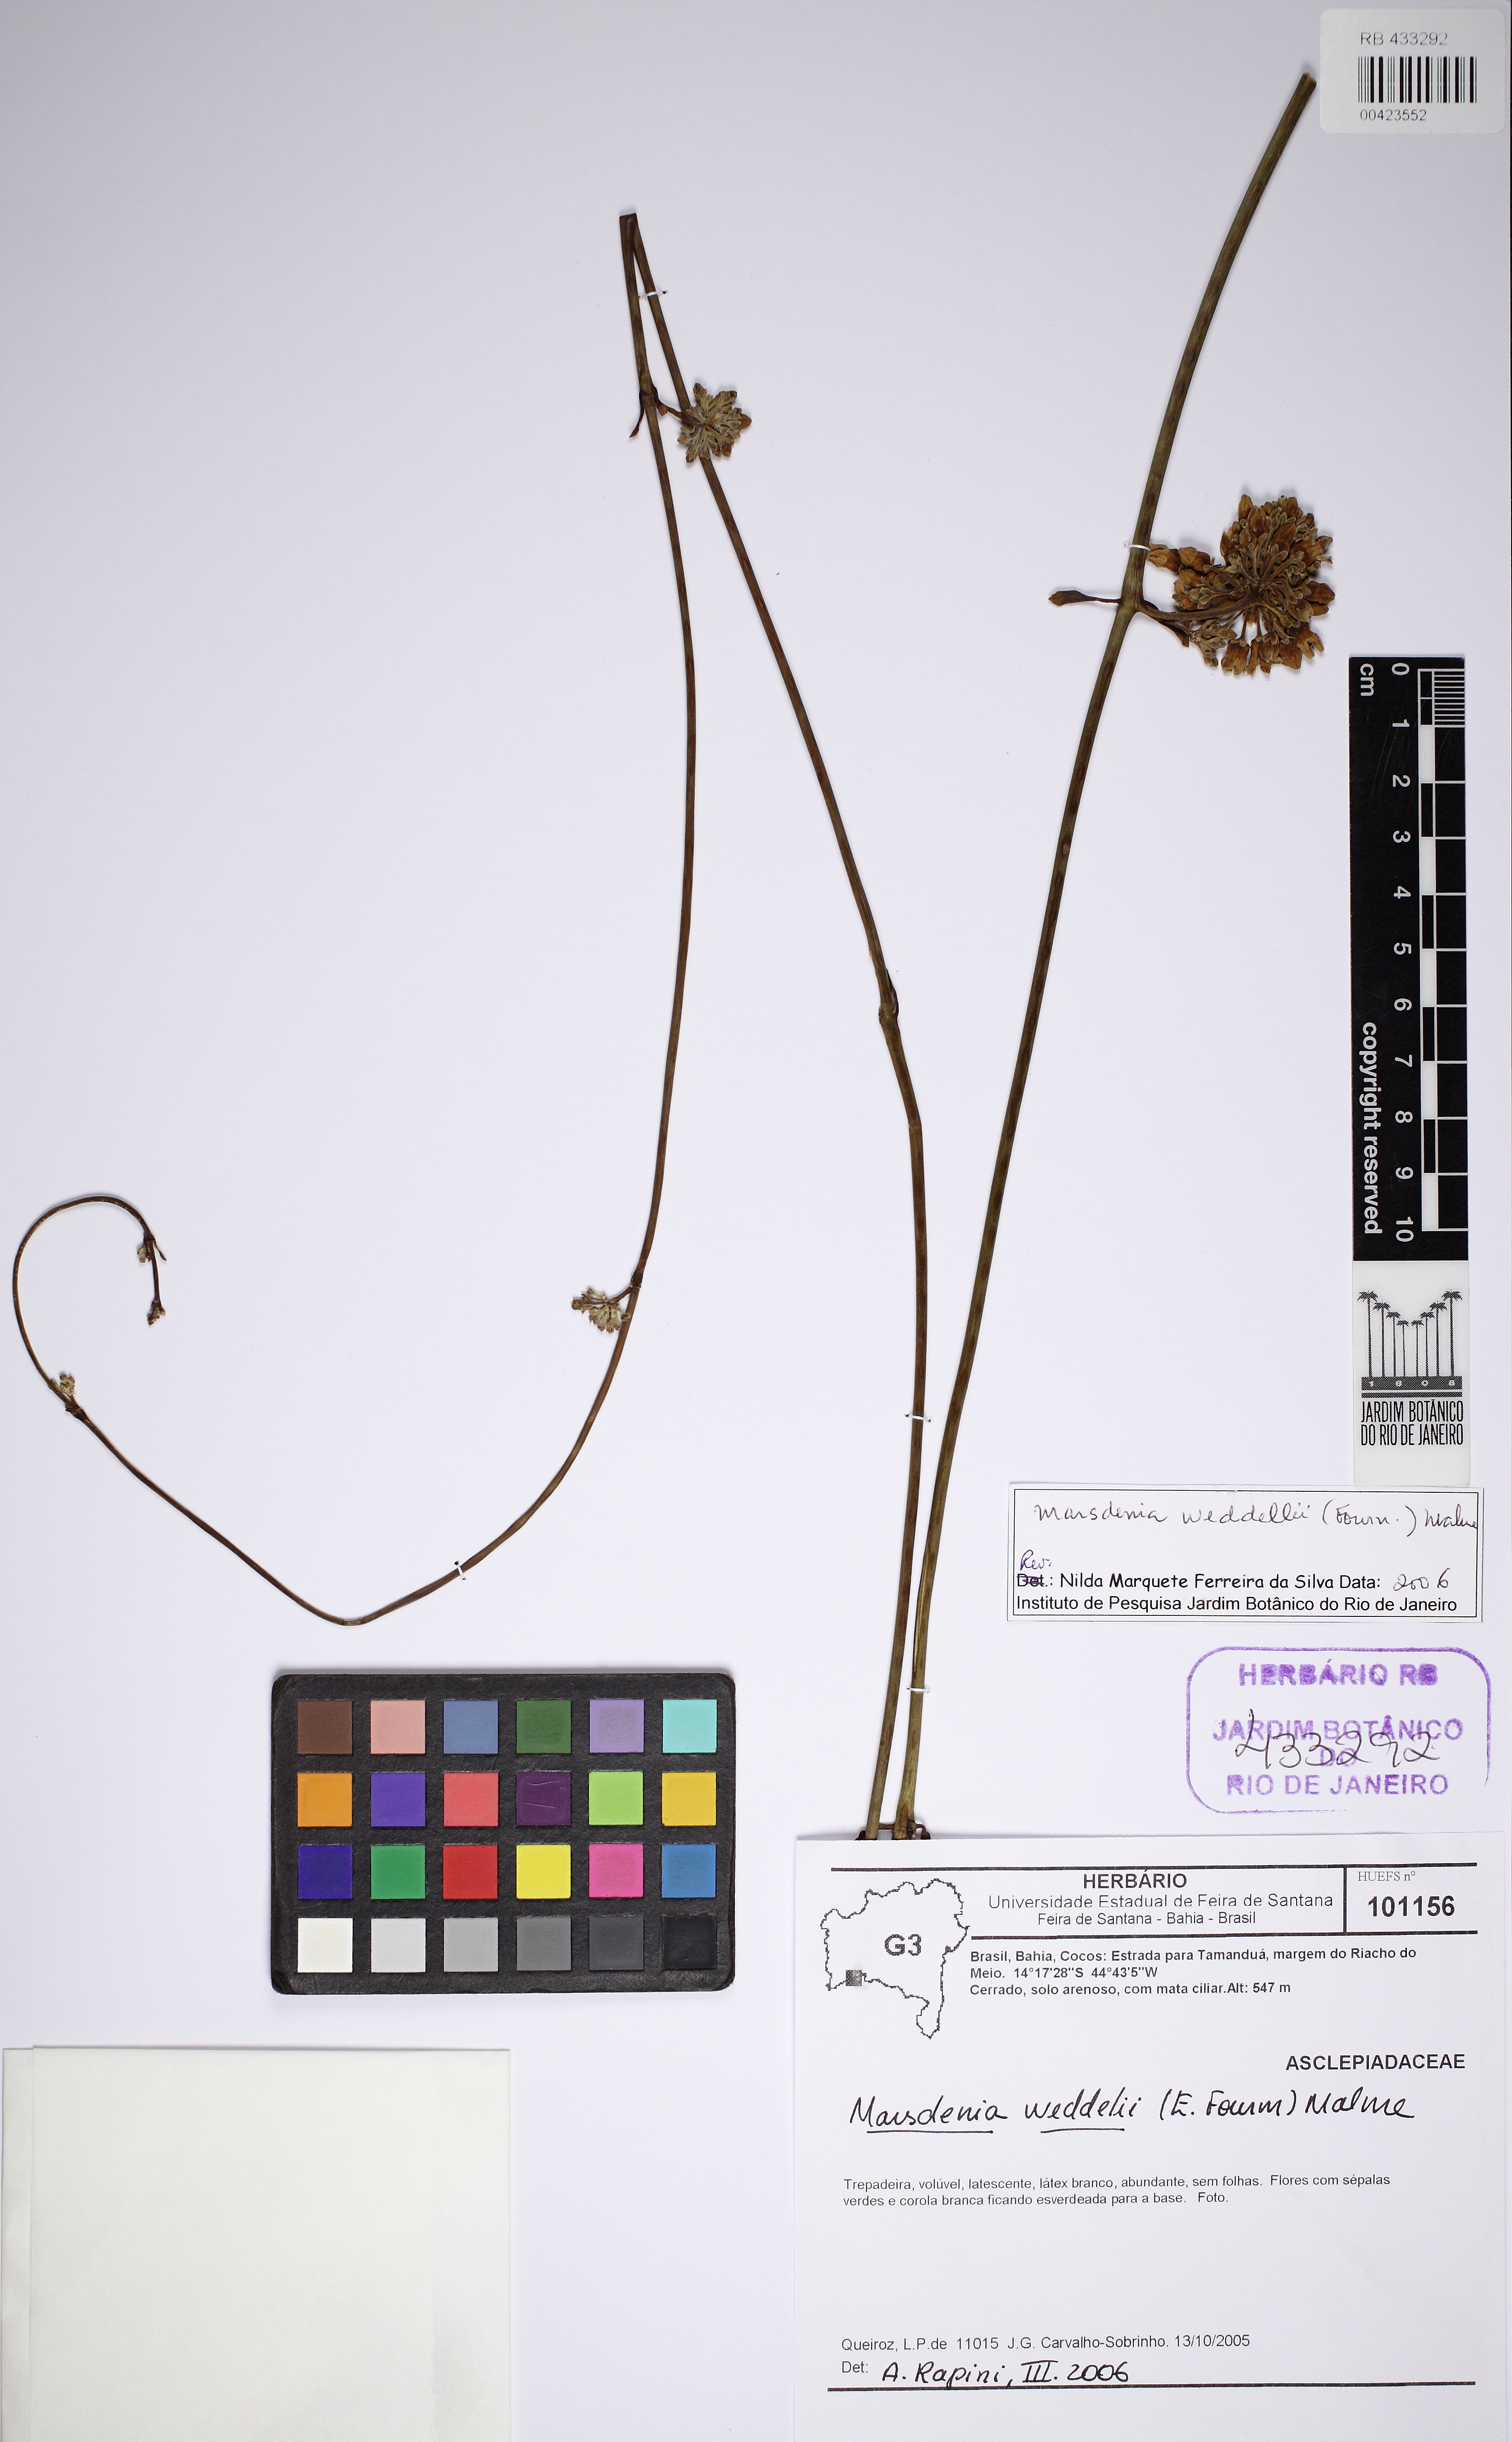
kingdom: Plantae
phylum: Tracheophyta
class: Magnoliopsida
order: Gentianales
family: Apocynaceae
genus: Ruehssia
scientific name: Ruehssia weddellii
